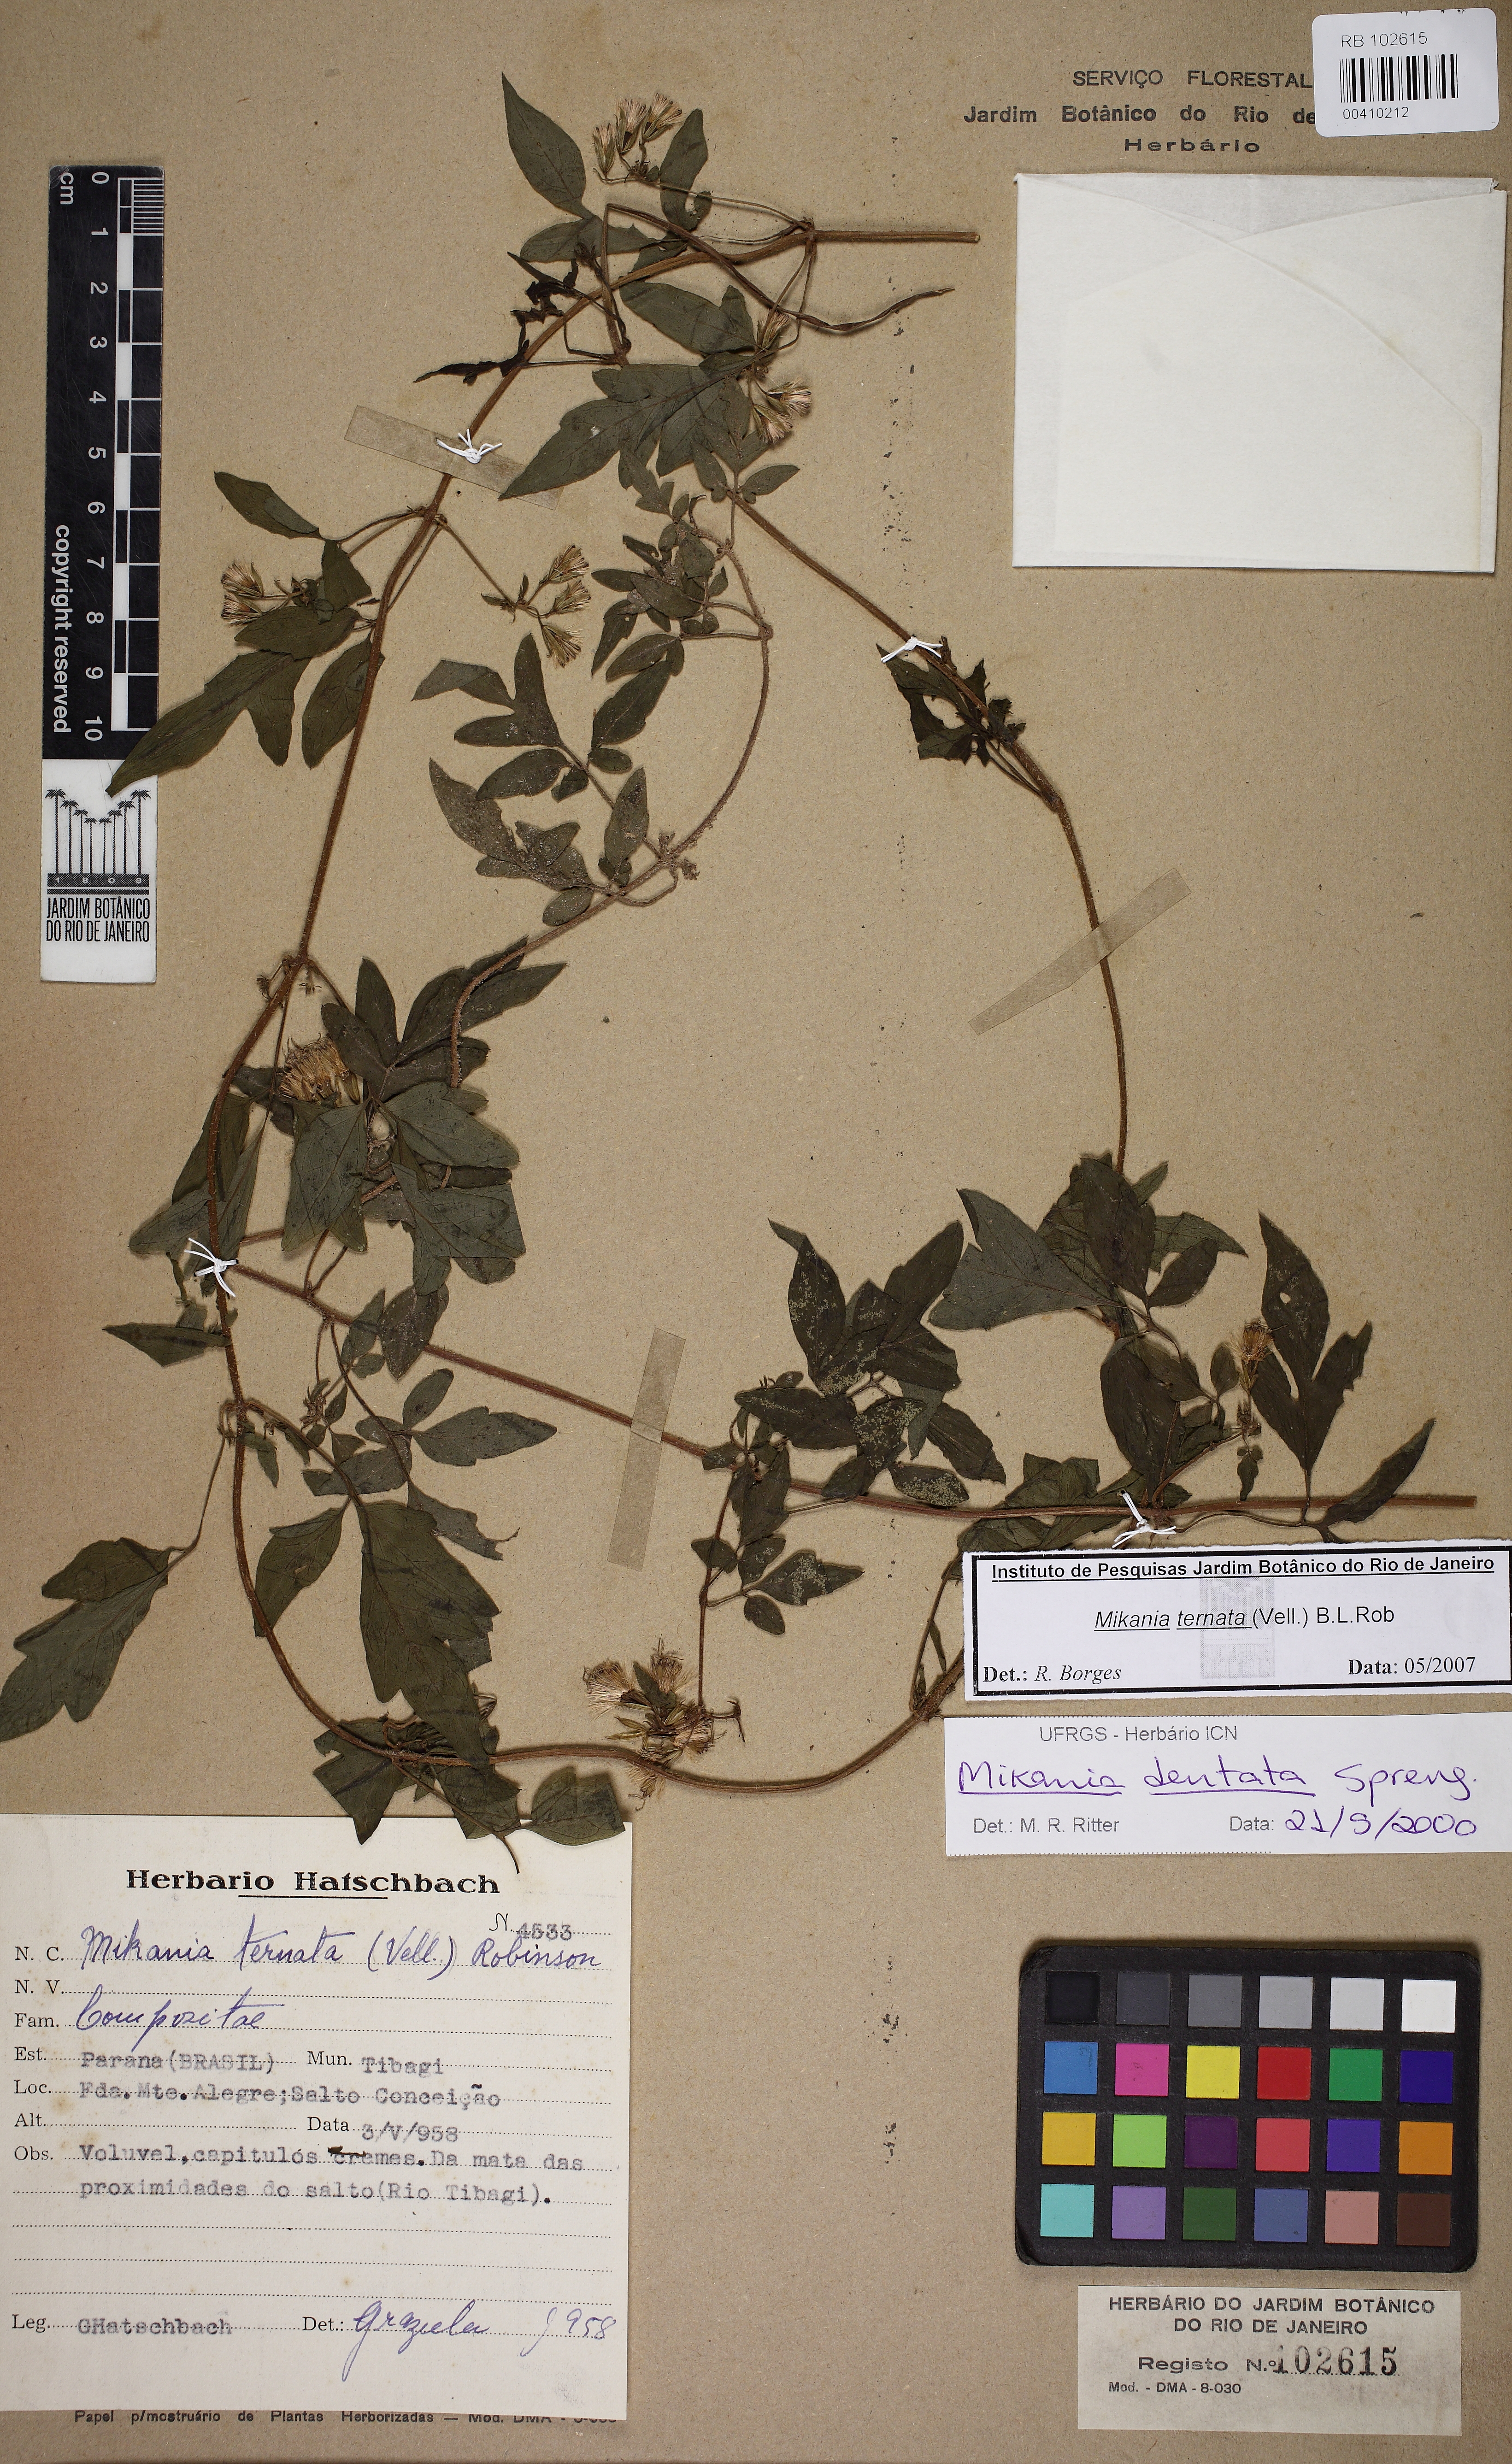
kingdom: Plantae
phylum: Tracheophyta
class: Magnoliopsida
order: Asterales
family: Asteraceae
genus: Mikania
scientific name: Mikania ternata
